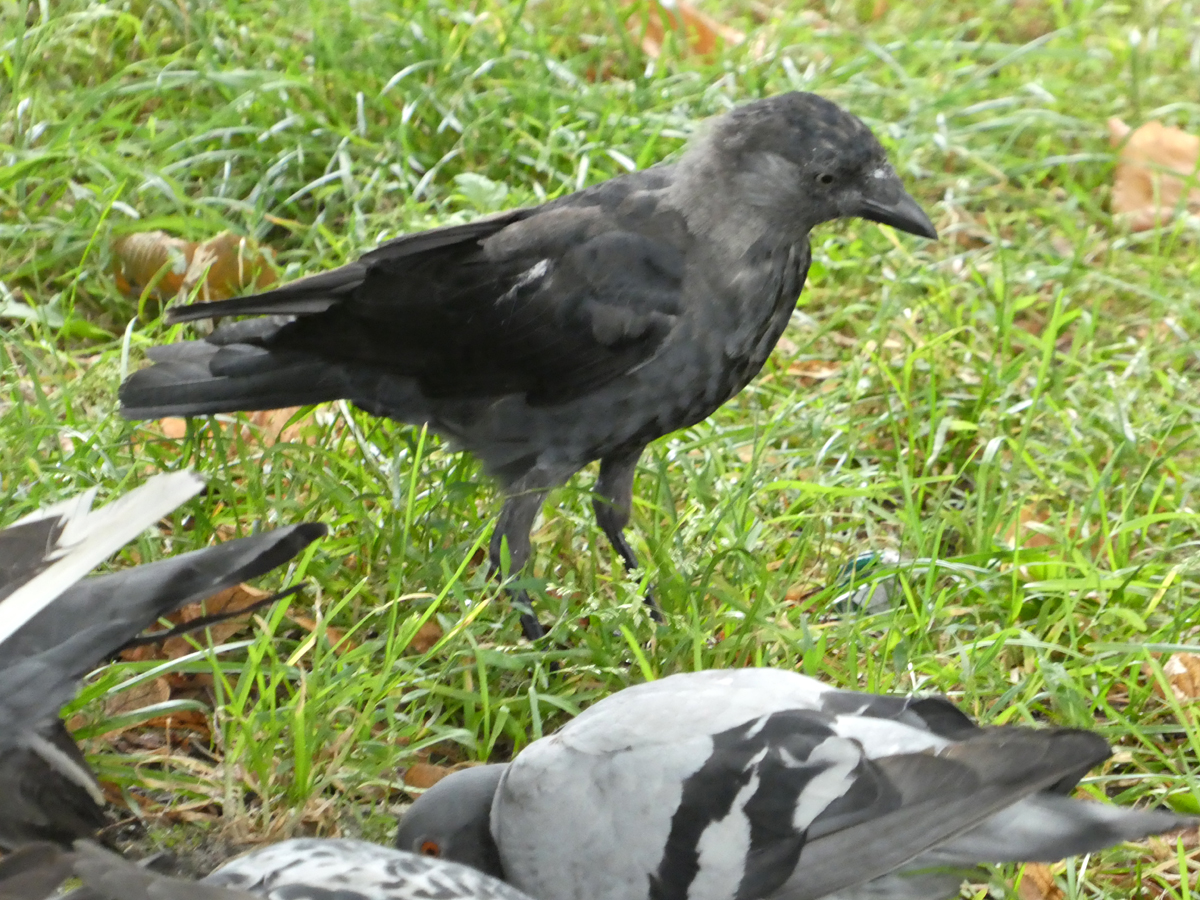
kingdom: Animalia
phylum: Chordata
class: Aves
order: Passeriformes
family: Corvidae
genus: Coloeus
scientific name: Coloeus monedula
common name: Western jackdaw
